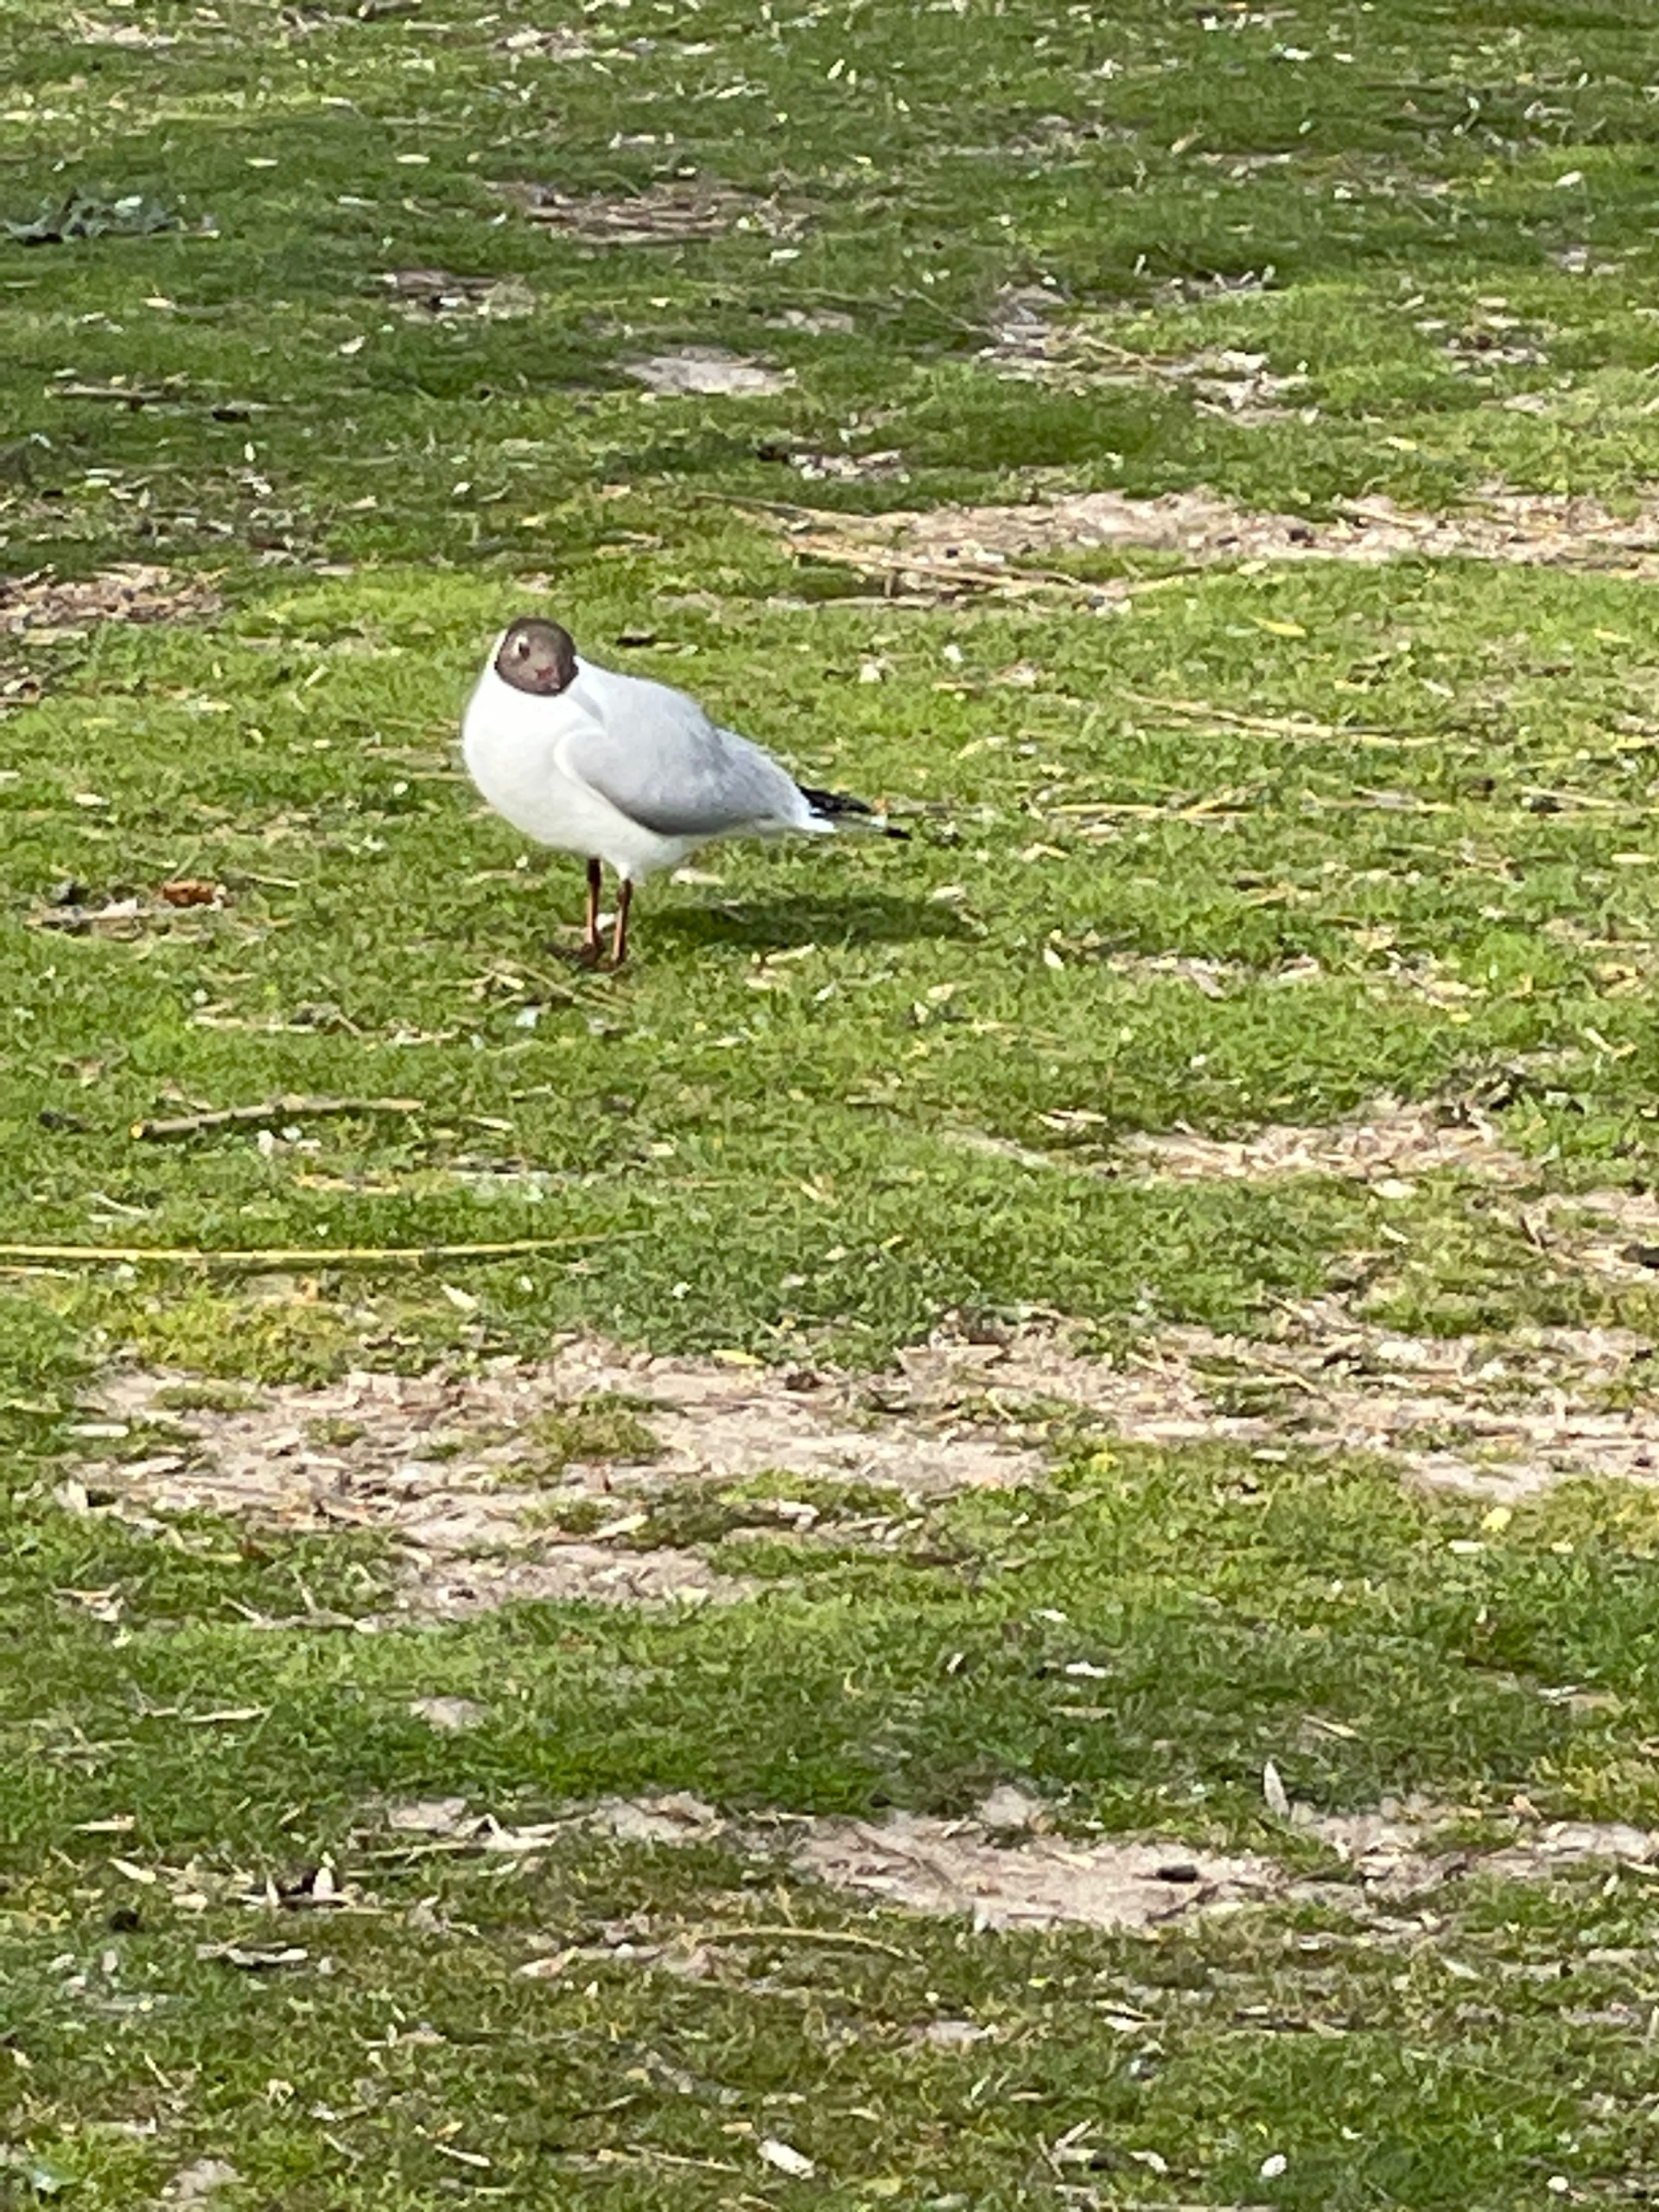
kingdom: Animalia
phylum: Chordata
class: Aves
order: Charadriiformes
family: Laridae
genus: Chroicocephalus
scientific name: Chroicocephalus ridibundus
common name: Hættemåge
